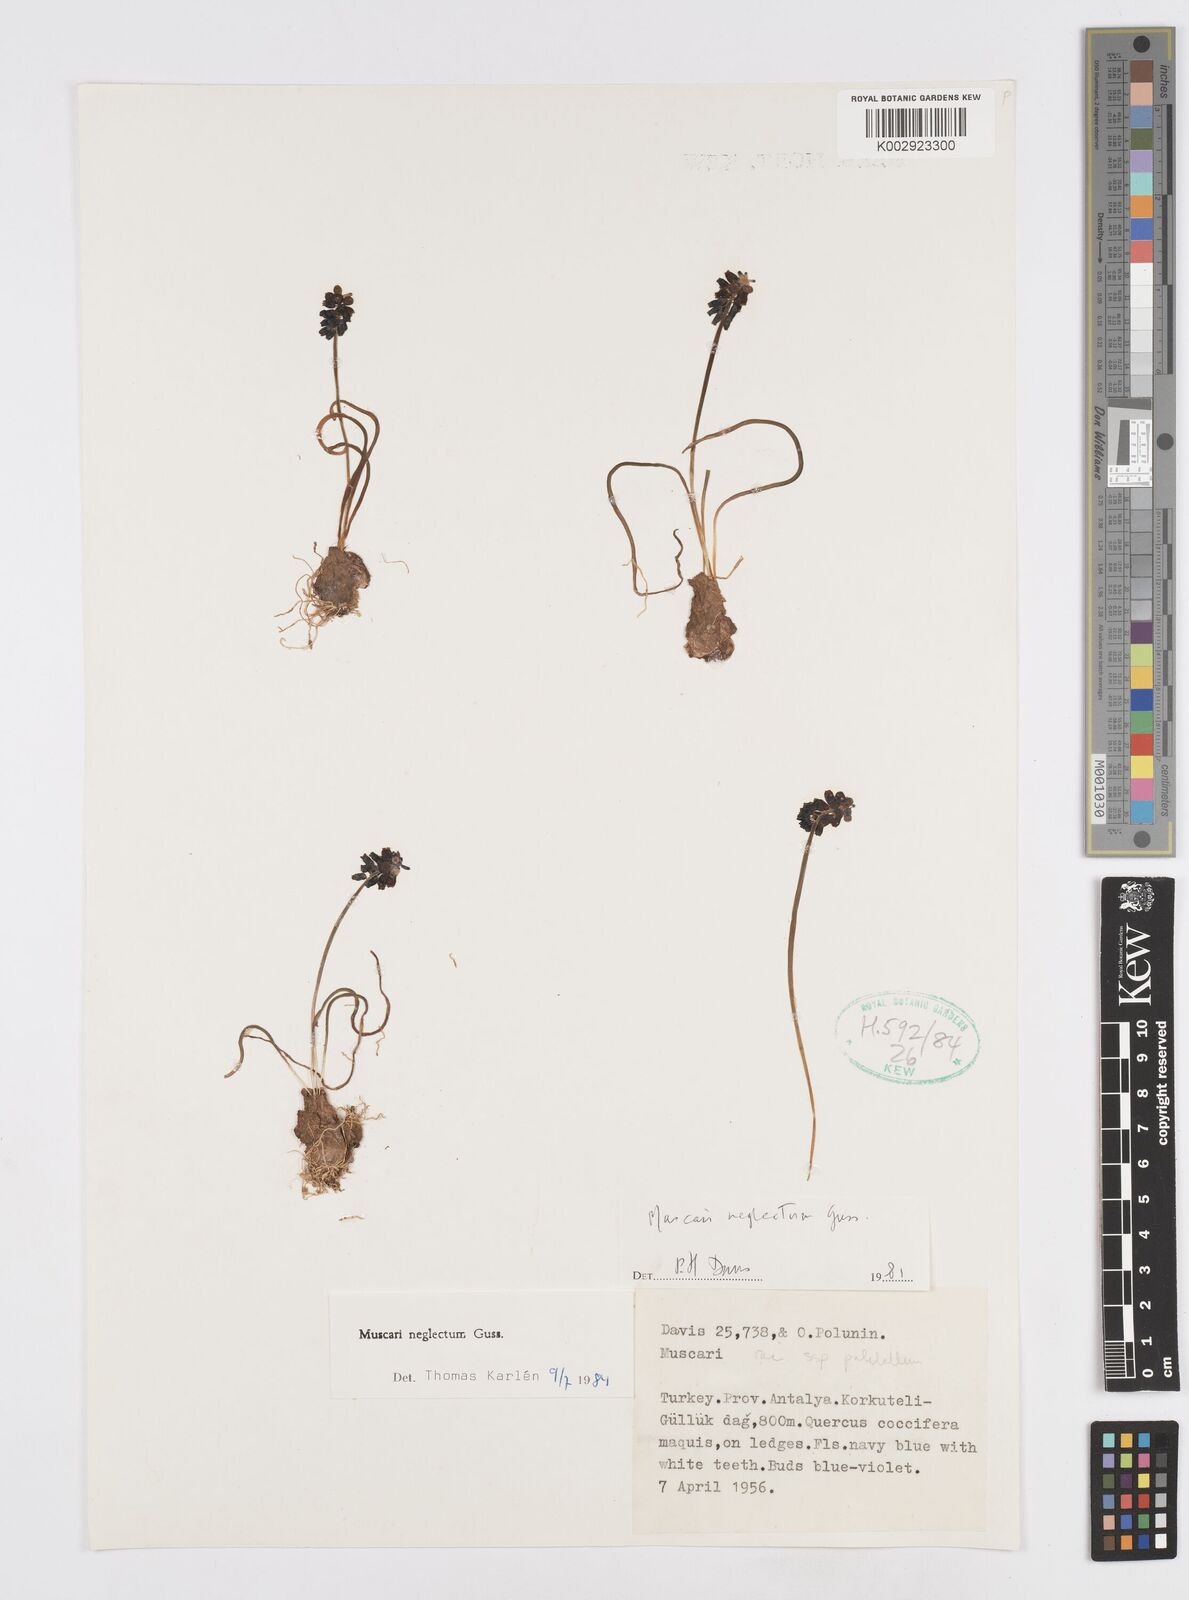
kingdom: Plantae
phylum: Tracheophyta
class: Liliopsida
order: Asparagales
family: Asparagaceae
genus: Muscari
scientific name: Muscari neglectum
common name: Grape-hyacinth
